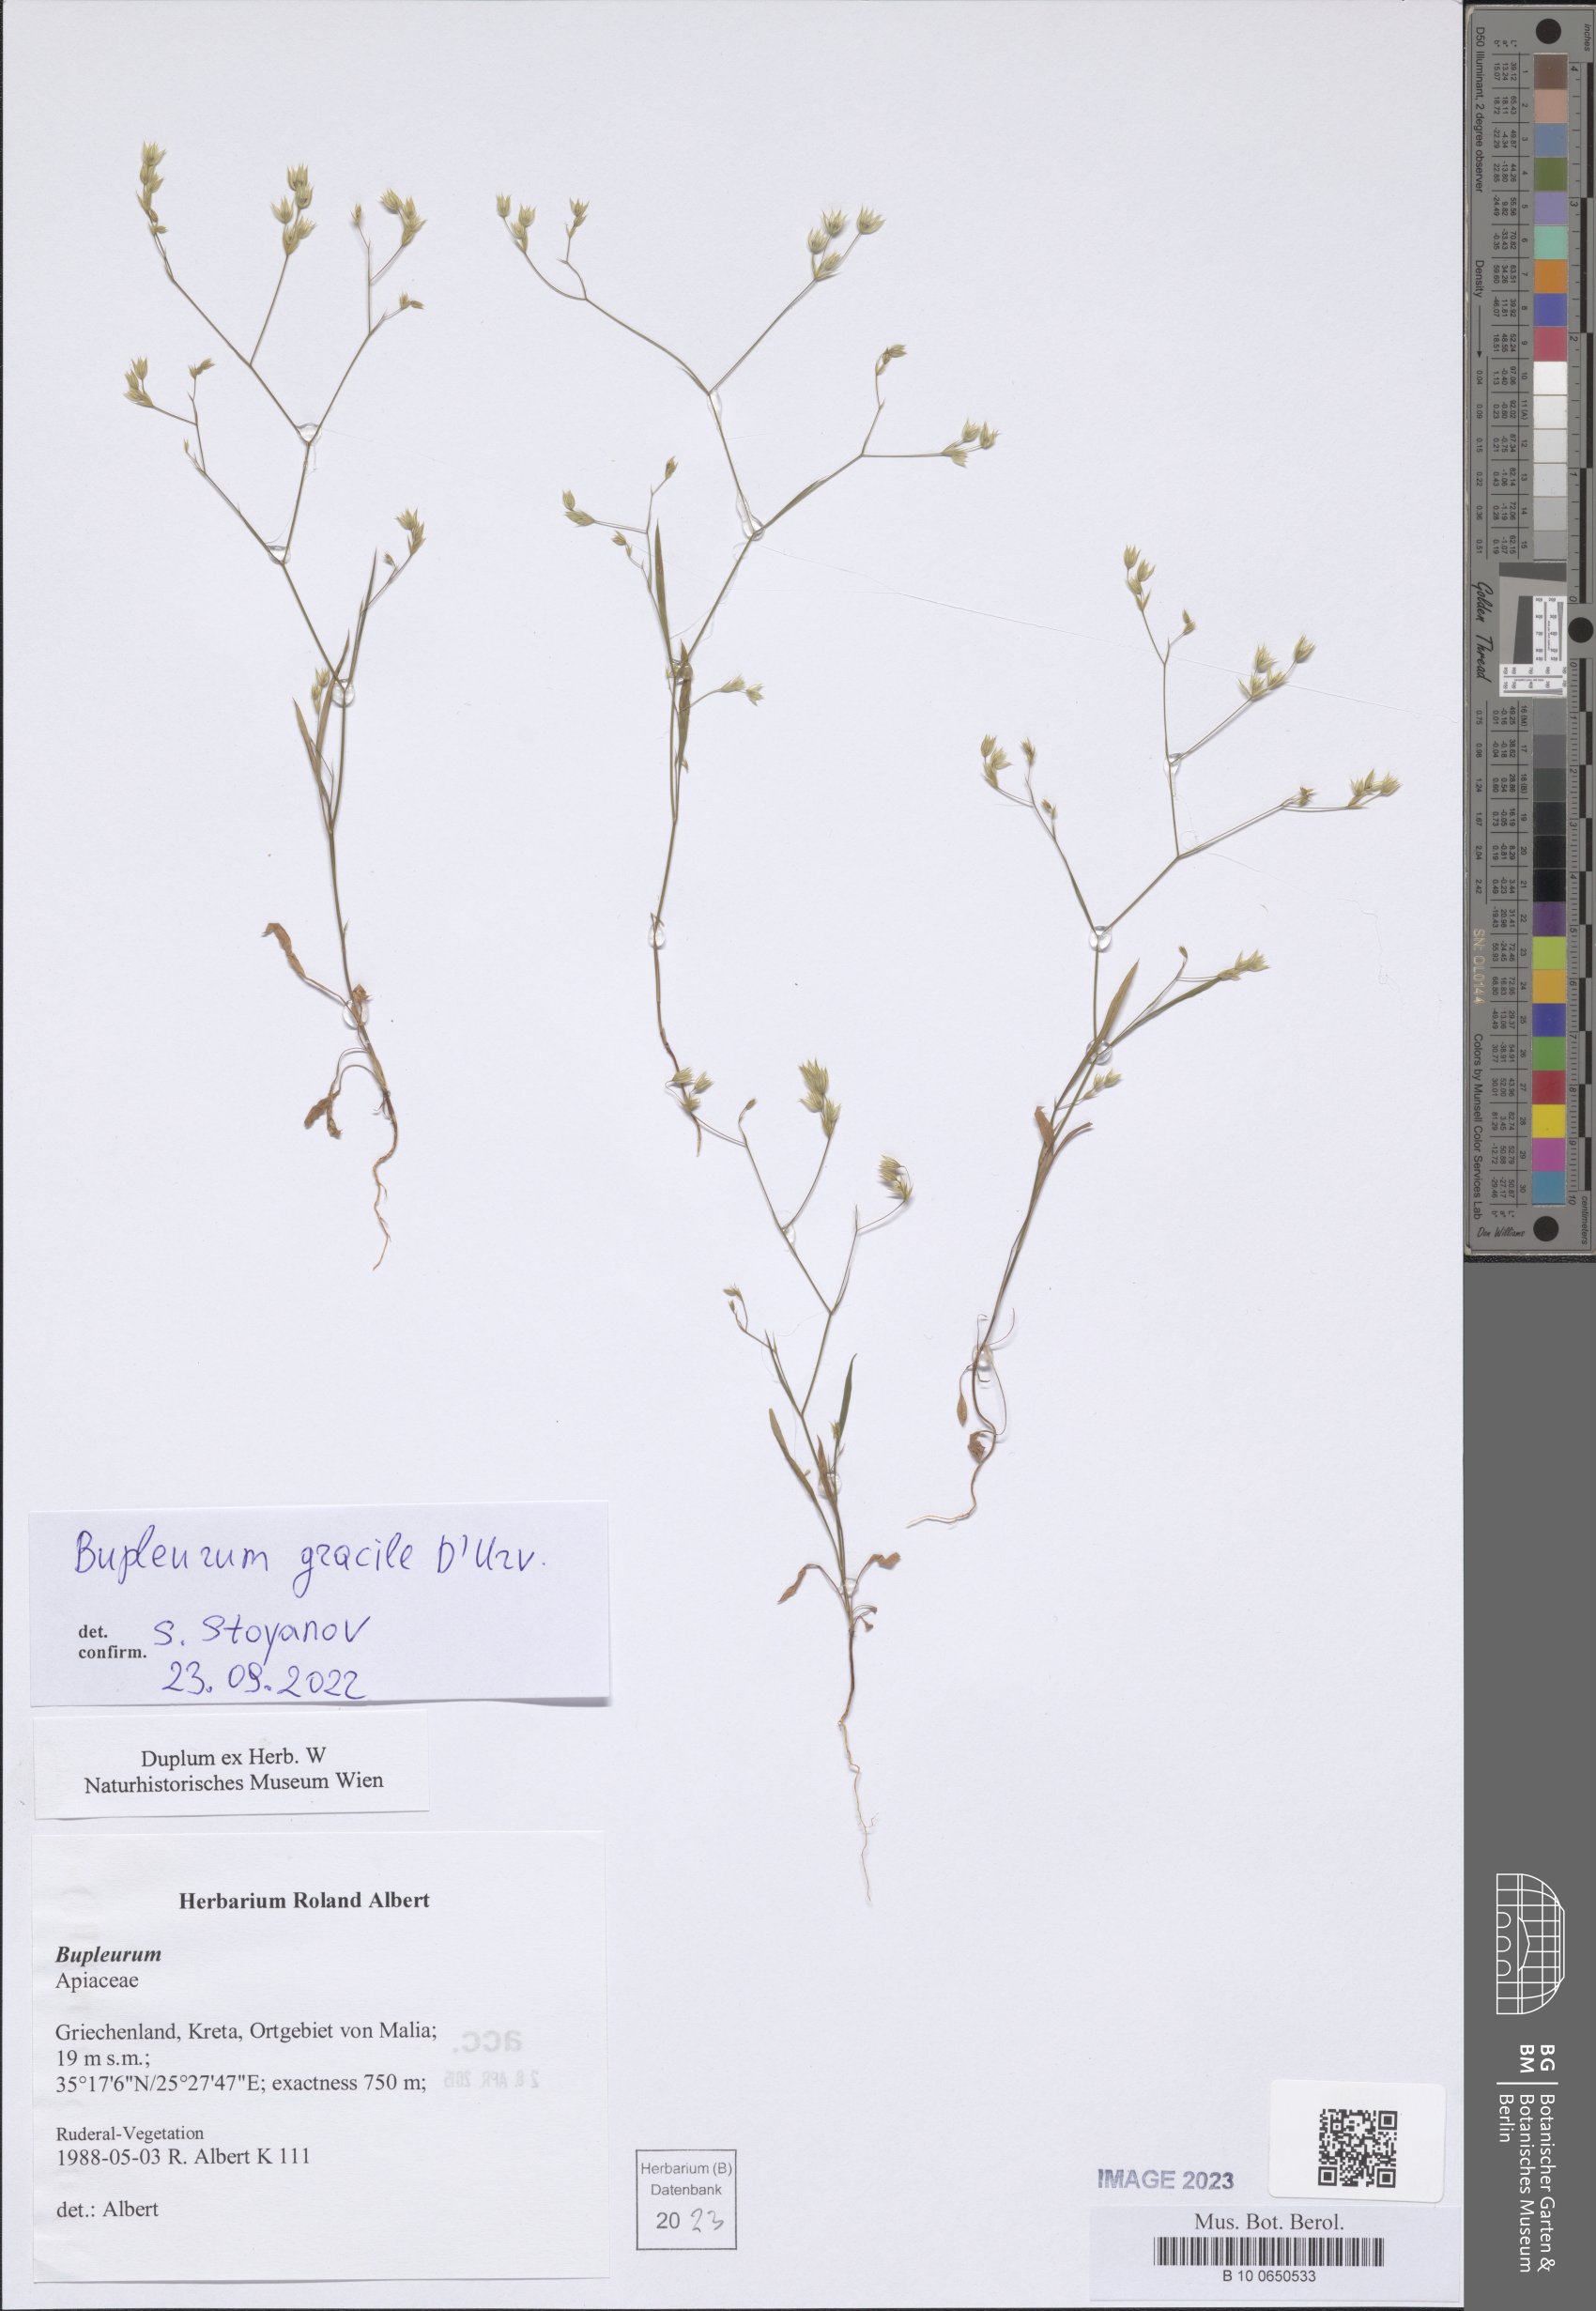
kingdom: Plantae
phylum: Tracheophyta
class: Magnoliopsida
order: Apiales
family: Apiaceae
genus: Bupleurum
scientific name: Bupleurum gracile
